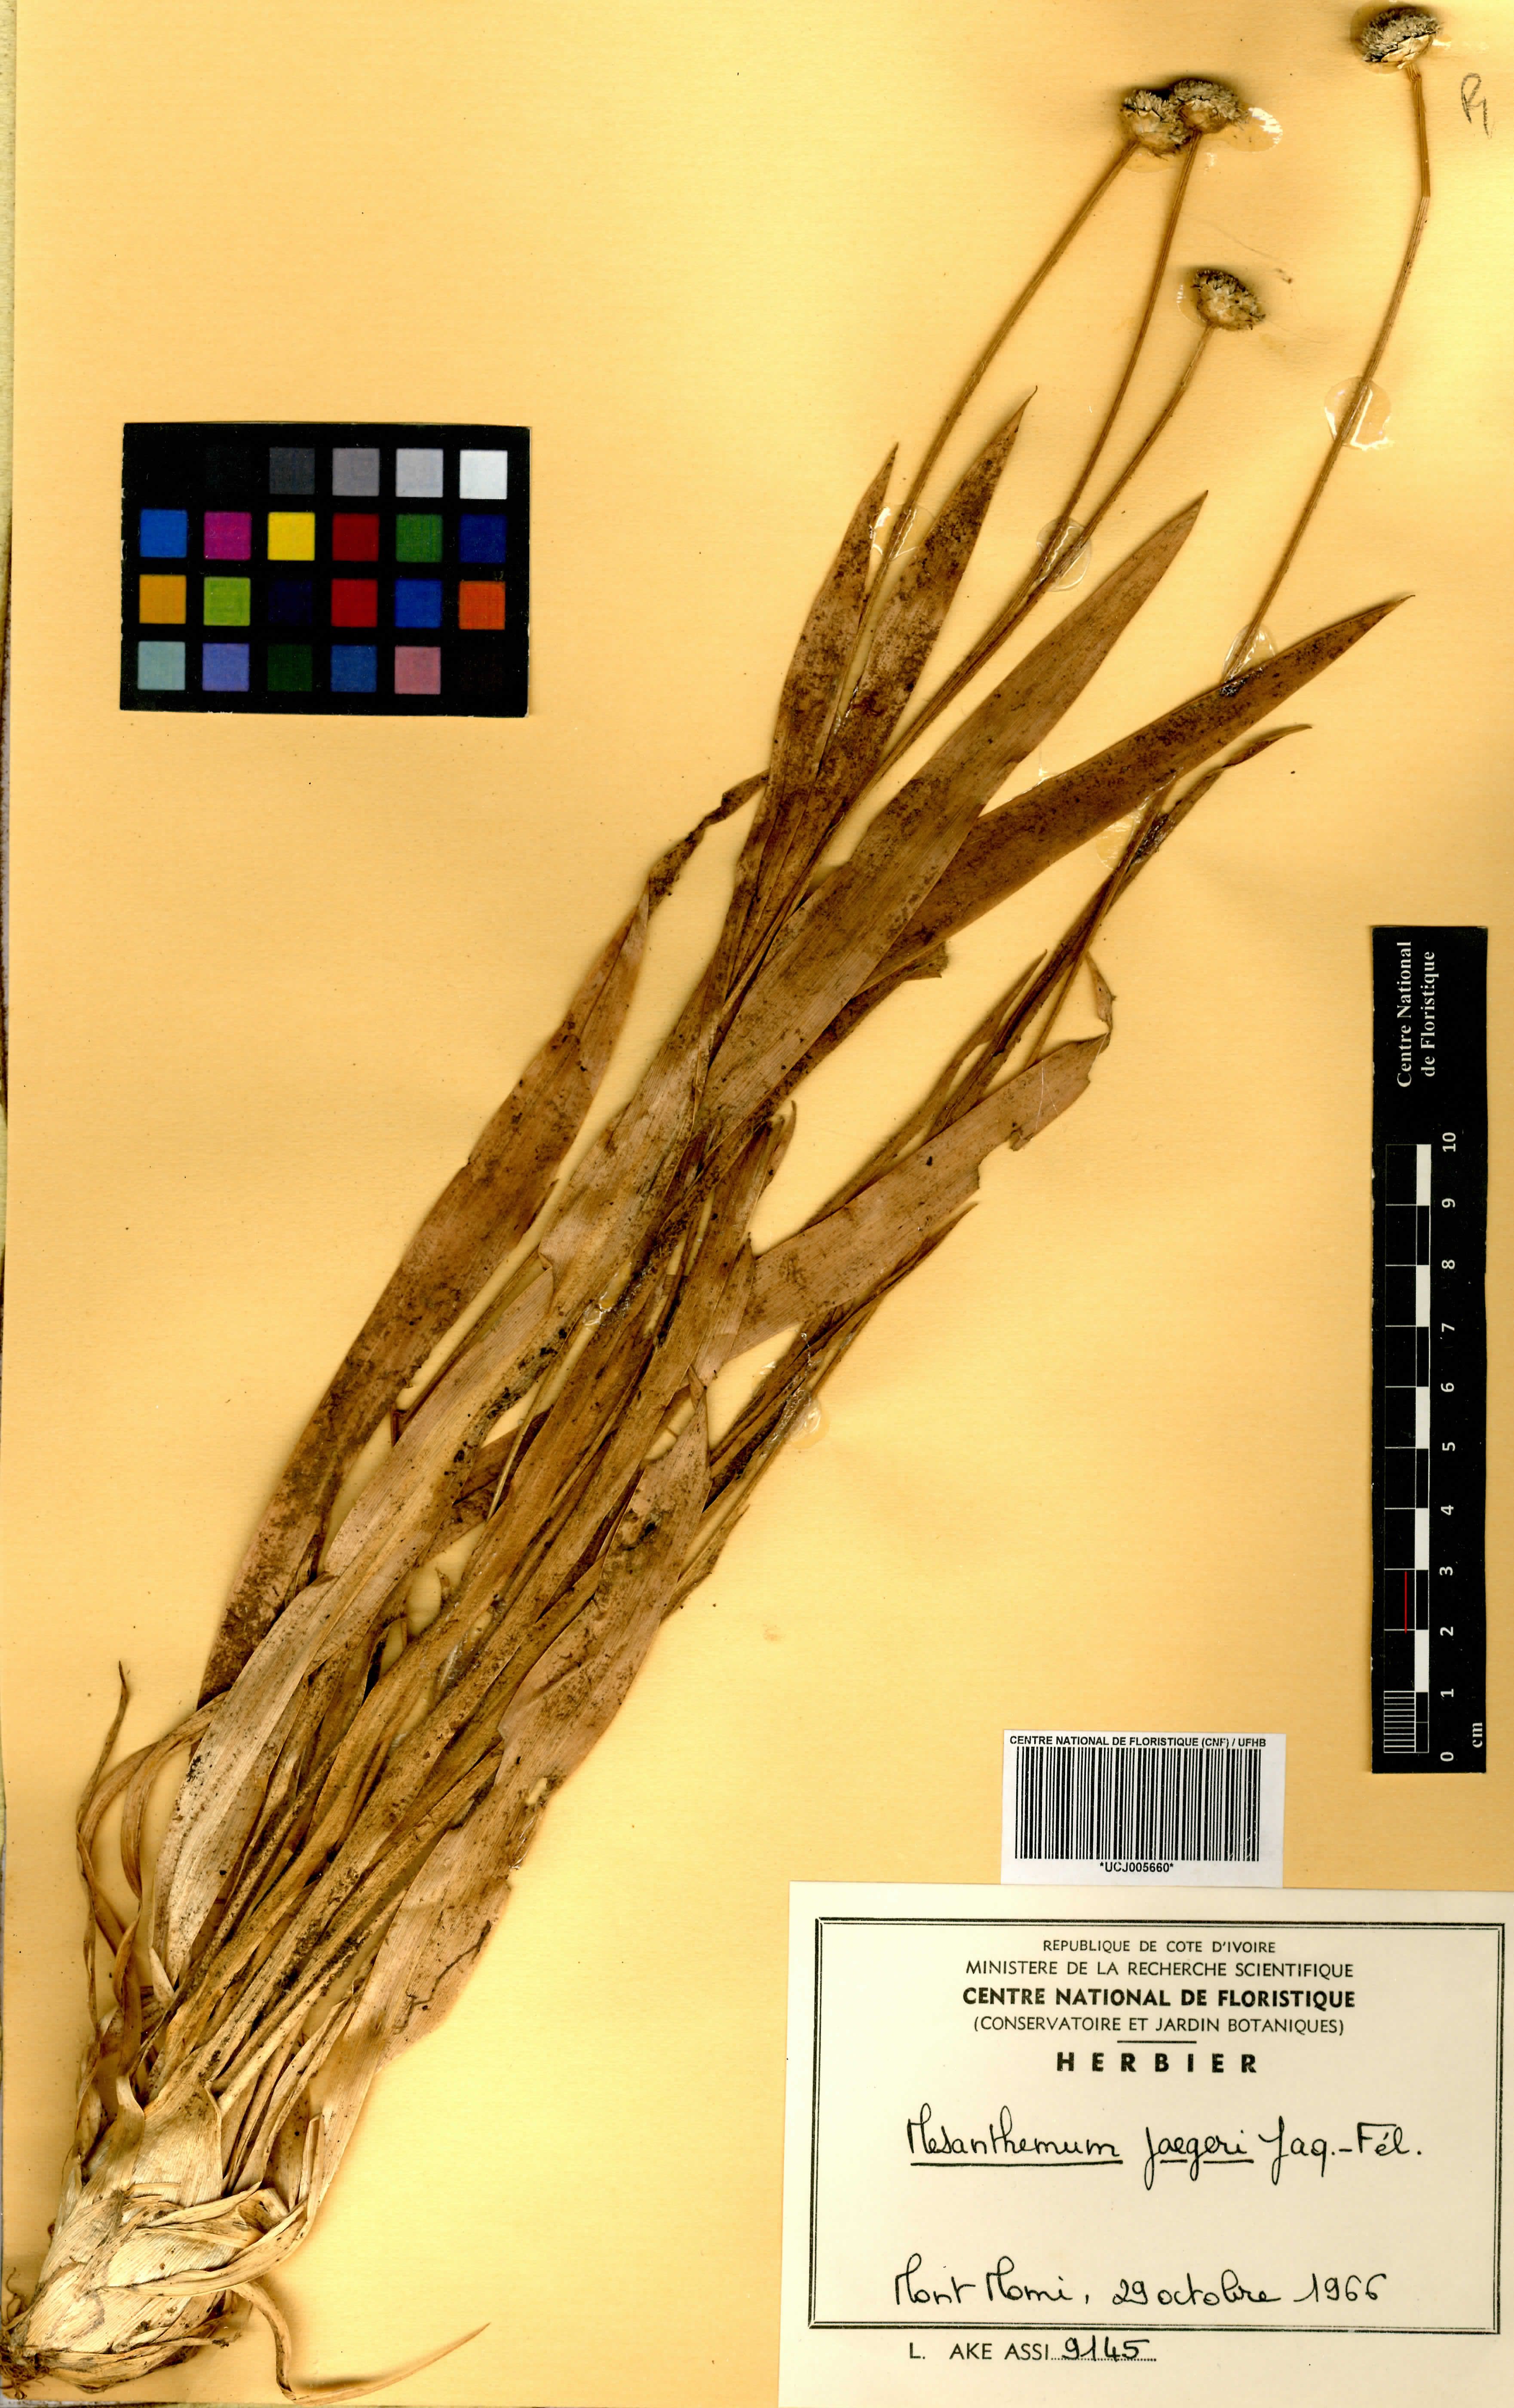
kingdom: Plantae
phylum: Tracheophyta
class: Liliopsida
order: Poales
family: Eriocaulaceae
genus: Mesanthemum
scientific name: Mesanthemum jaegeri
